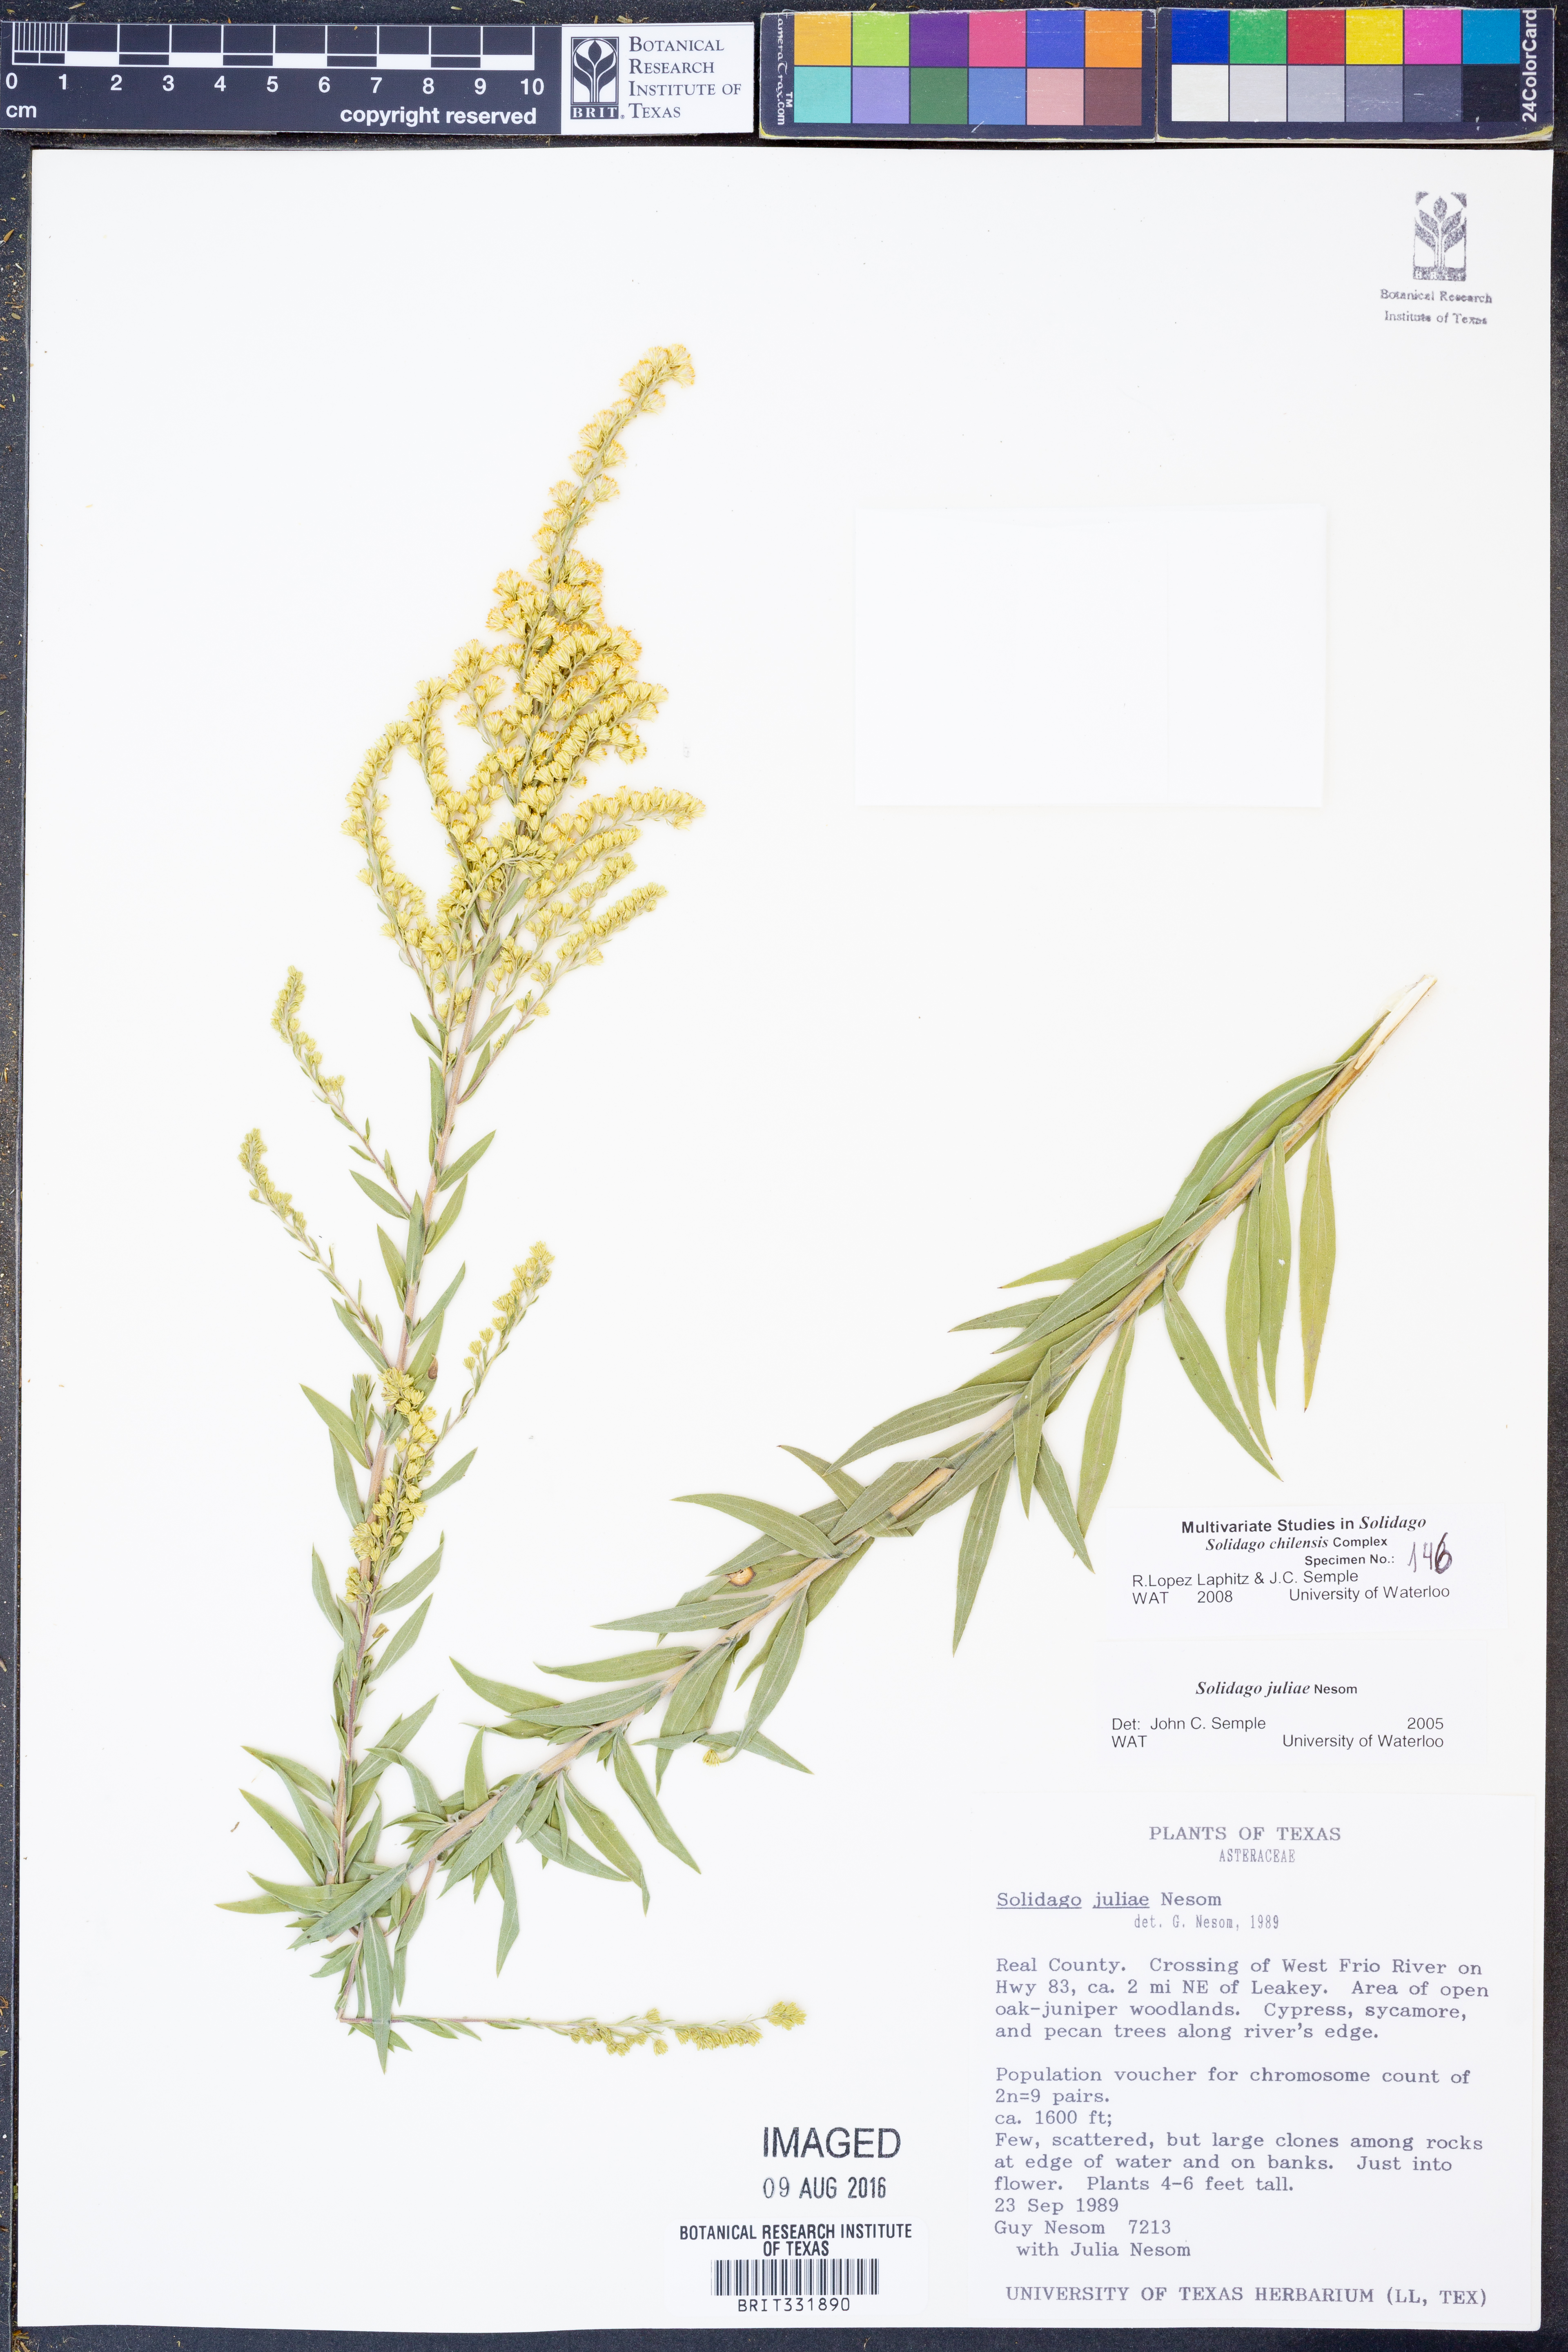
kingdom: Plantae
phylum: Tracheophyta
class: Magnoliopsida
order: Asterales
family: Asteraceae
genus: Solidago
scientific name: Solidago juliae
